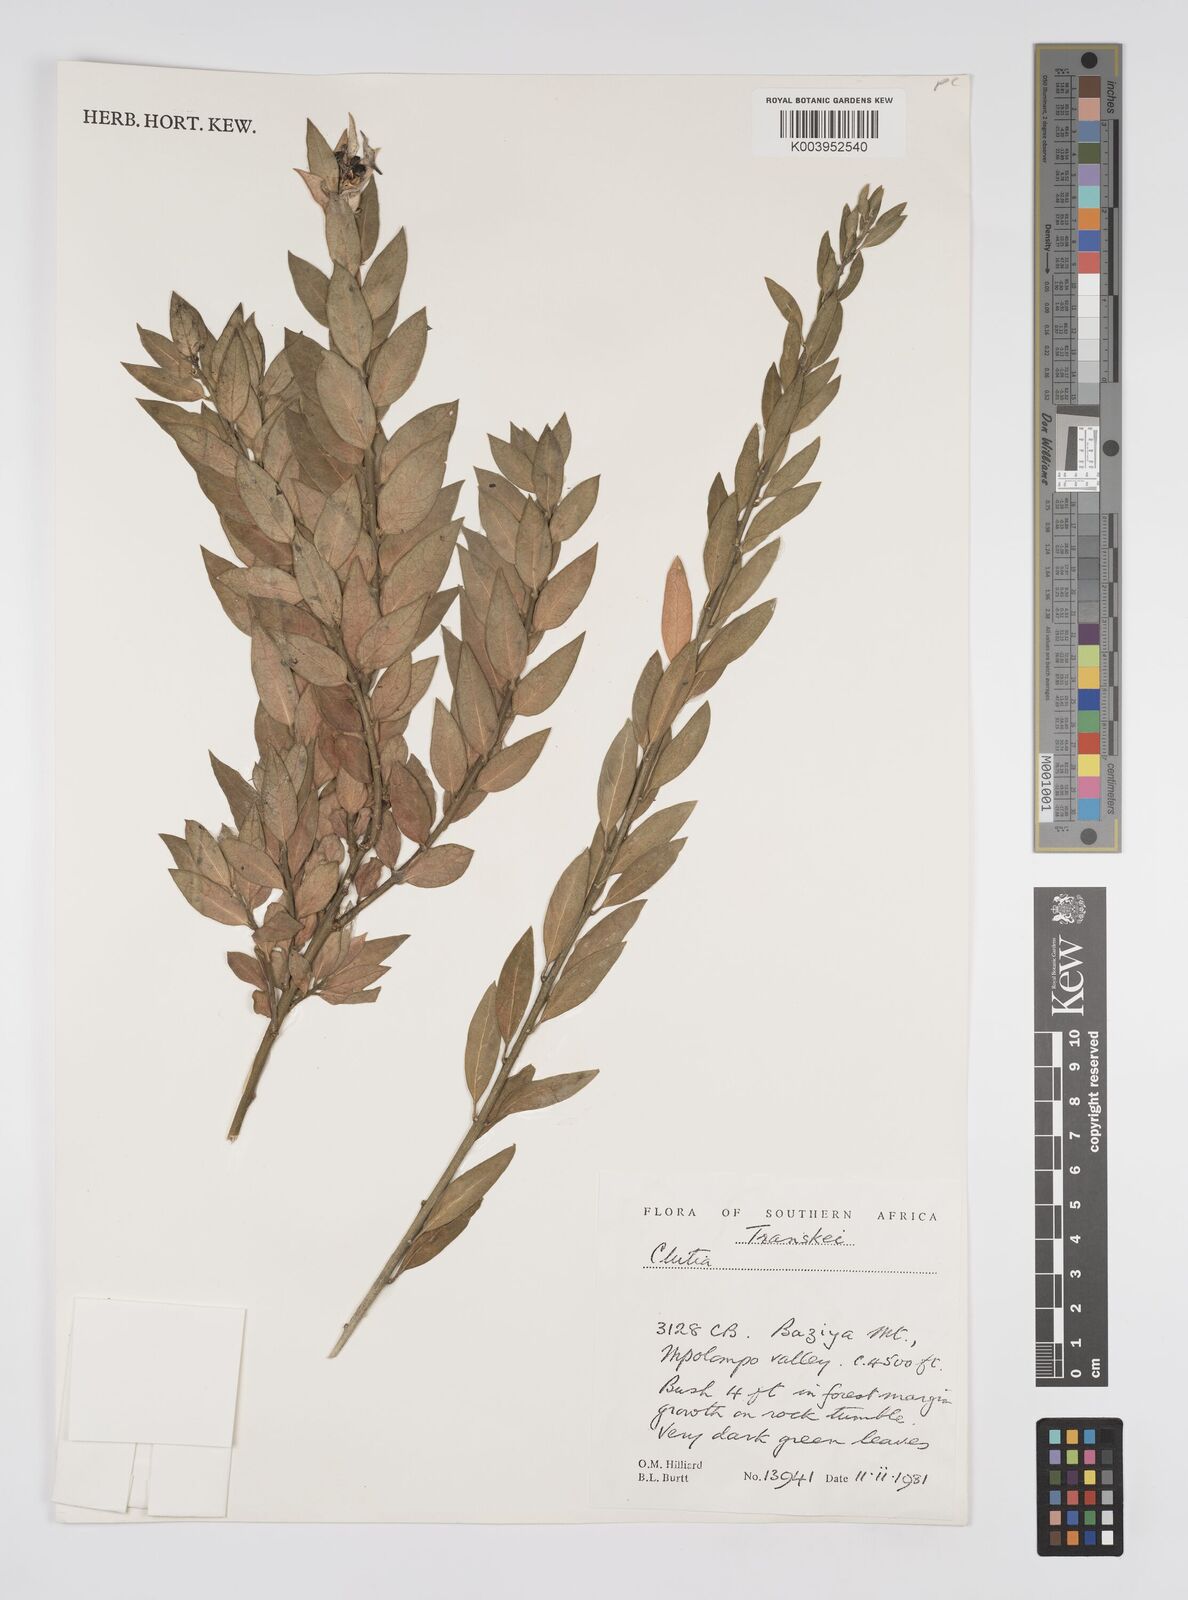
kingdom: Plantae
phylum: Tracheophyta
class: Magnoliopsida
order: Malpighiales
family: Peraceae
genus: Clutia
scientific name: Clutia
